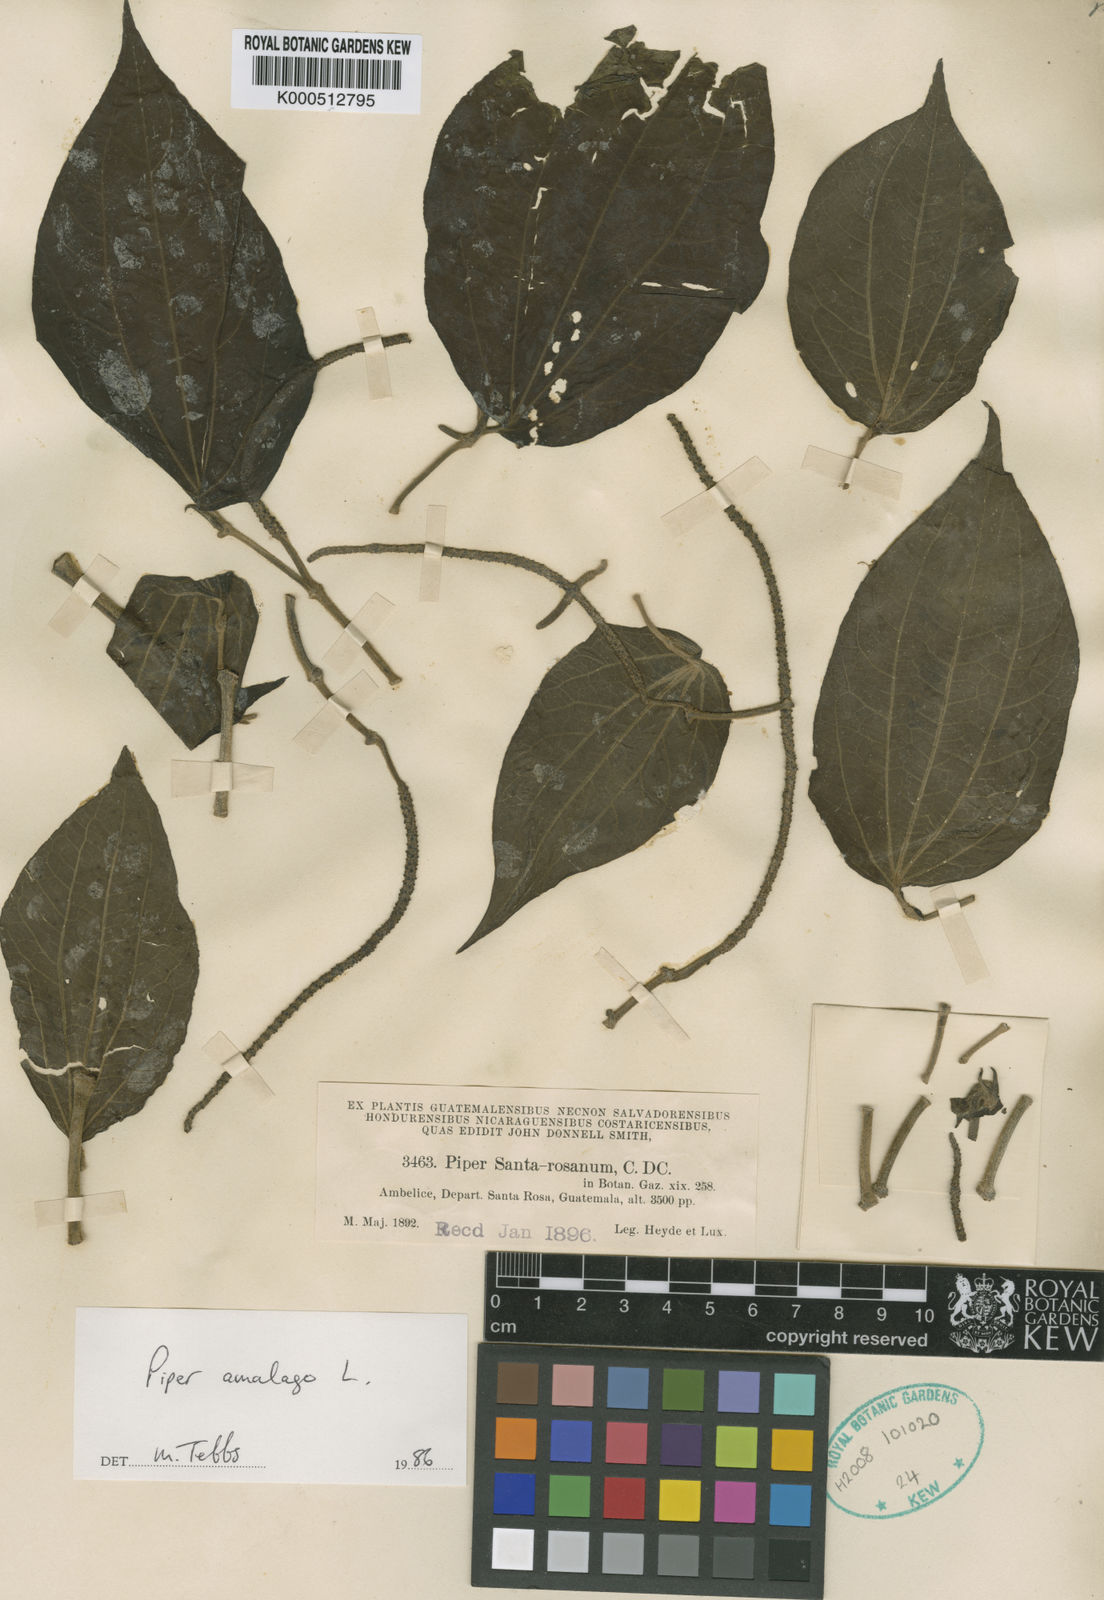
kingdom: Plantae
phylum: Tracheophyta
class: Magnoliopsida
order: Piperales
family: Piperaceae
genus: Piper
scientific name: Piper martensianum
